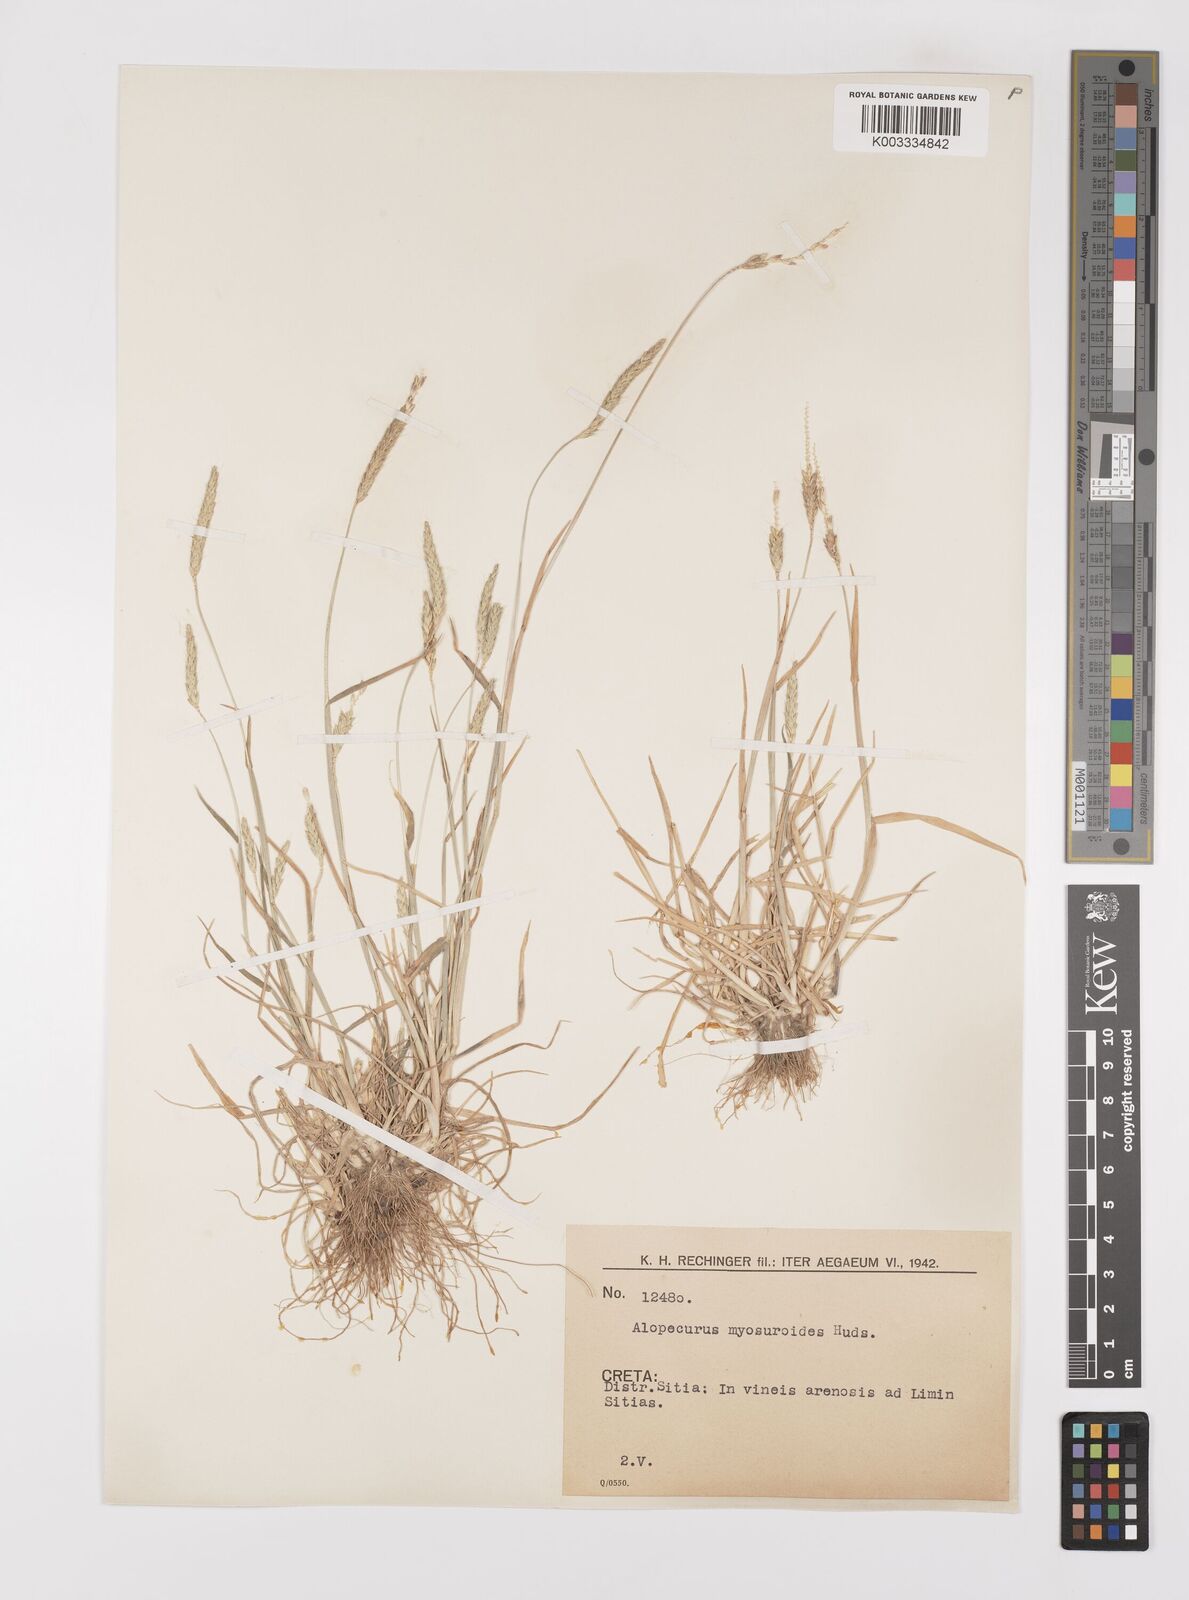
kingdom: Plantae
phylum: Tracheophyta
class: Liliopsida
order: Poales
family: Poaceae
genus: Alopecurus
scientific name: Alopecurus myosuroides
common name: Black-grass
